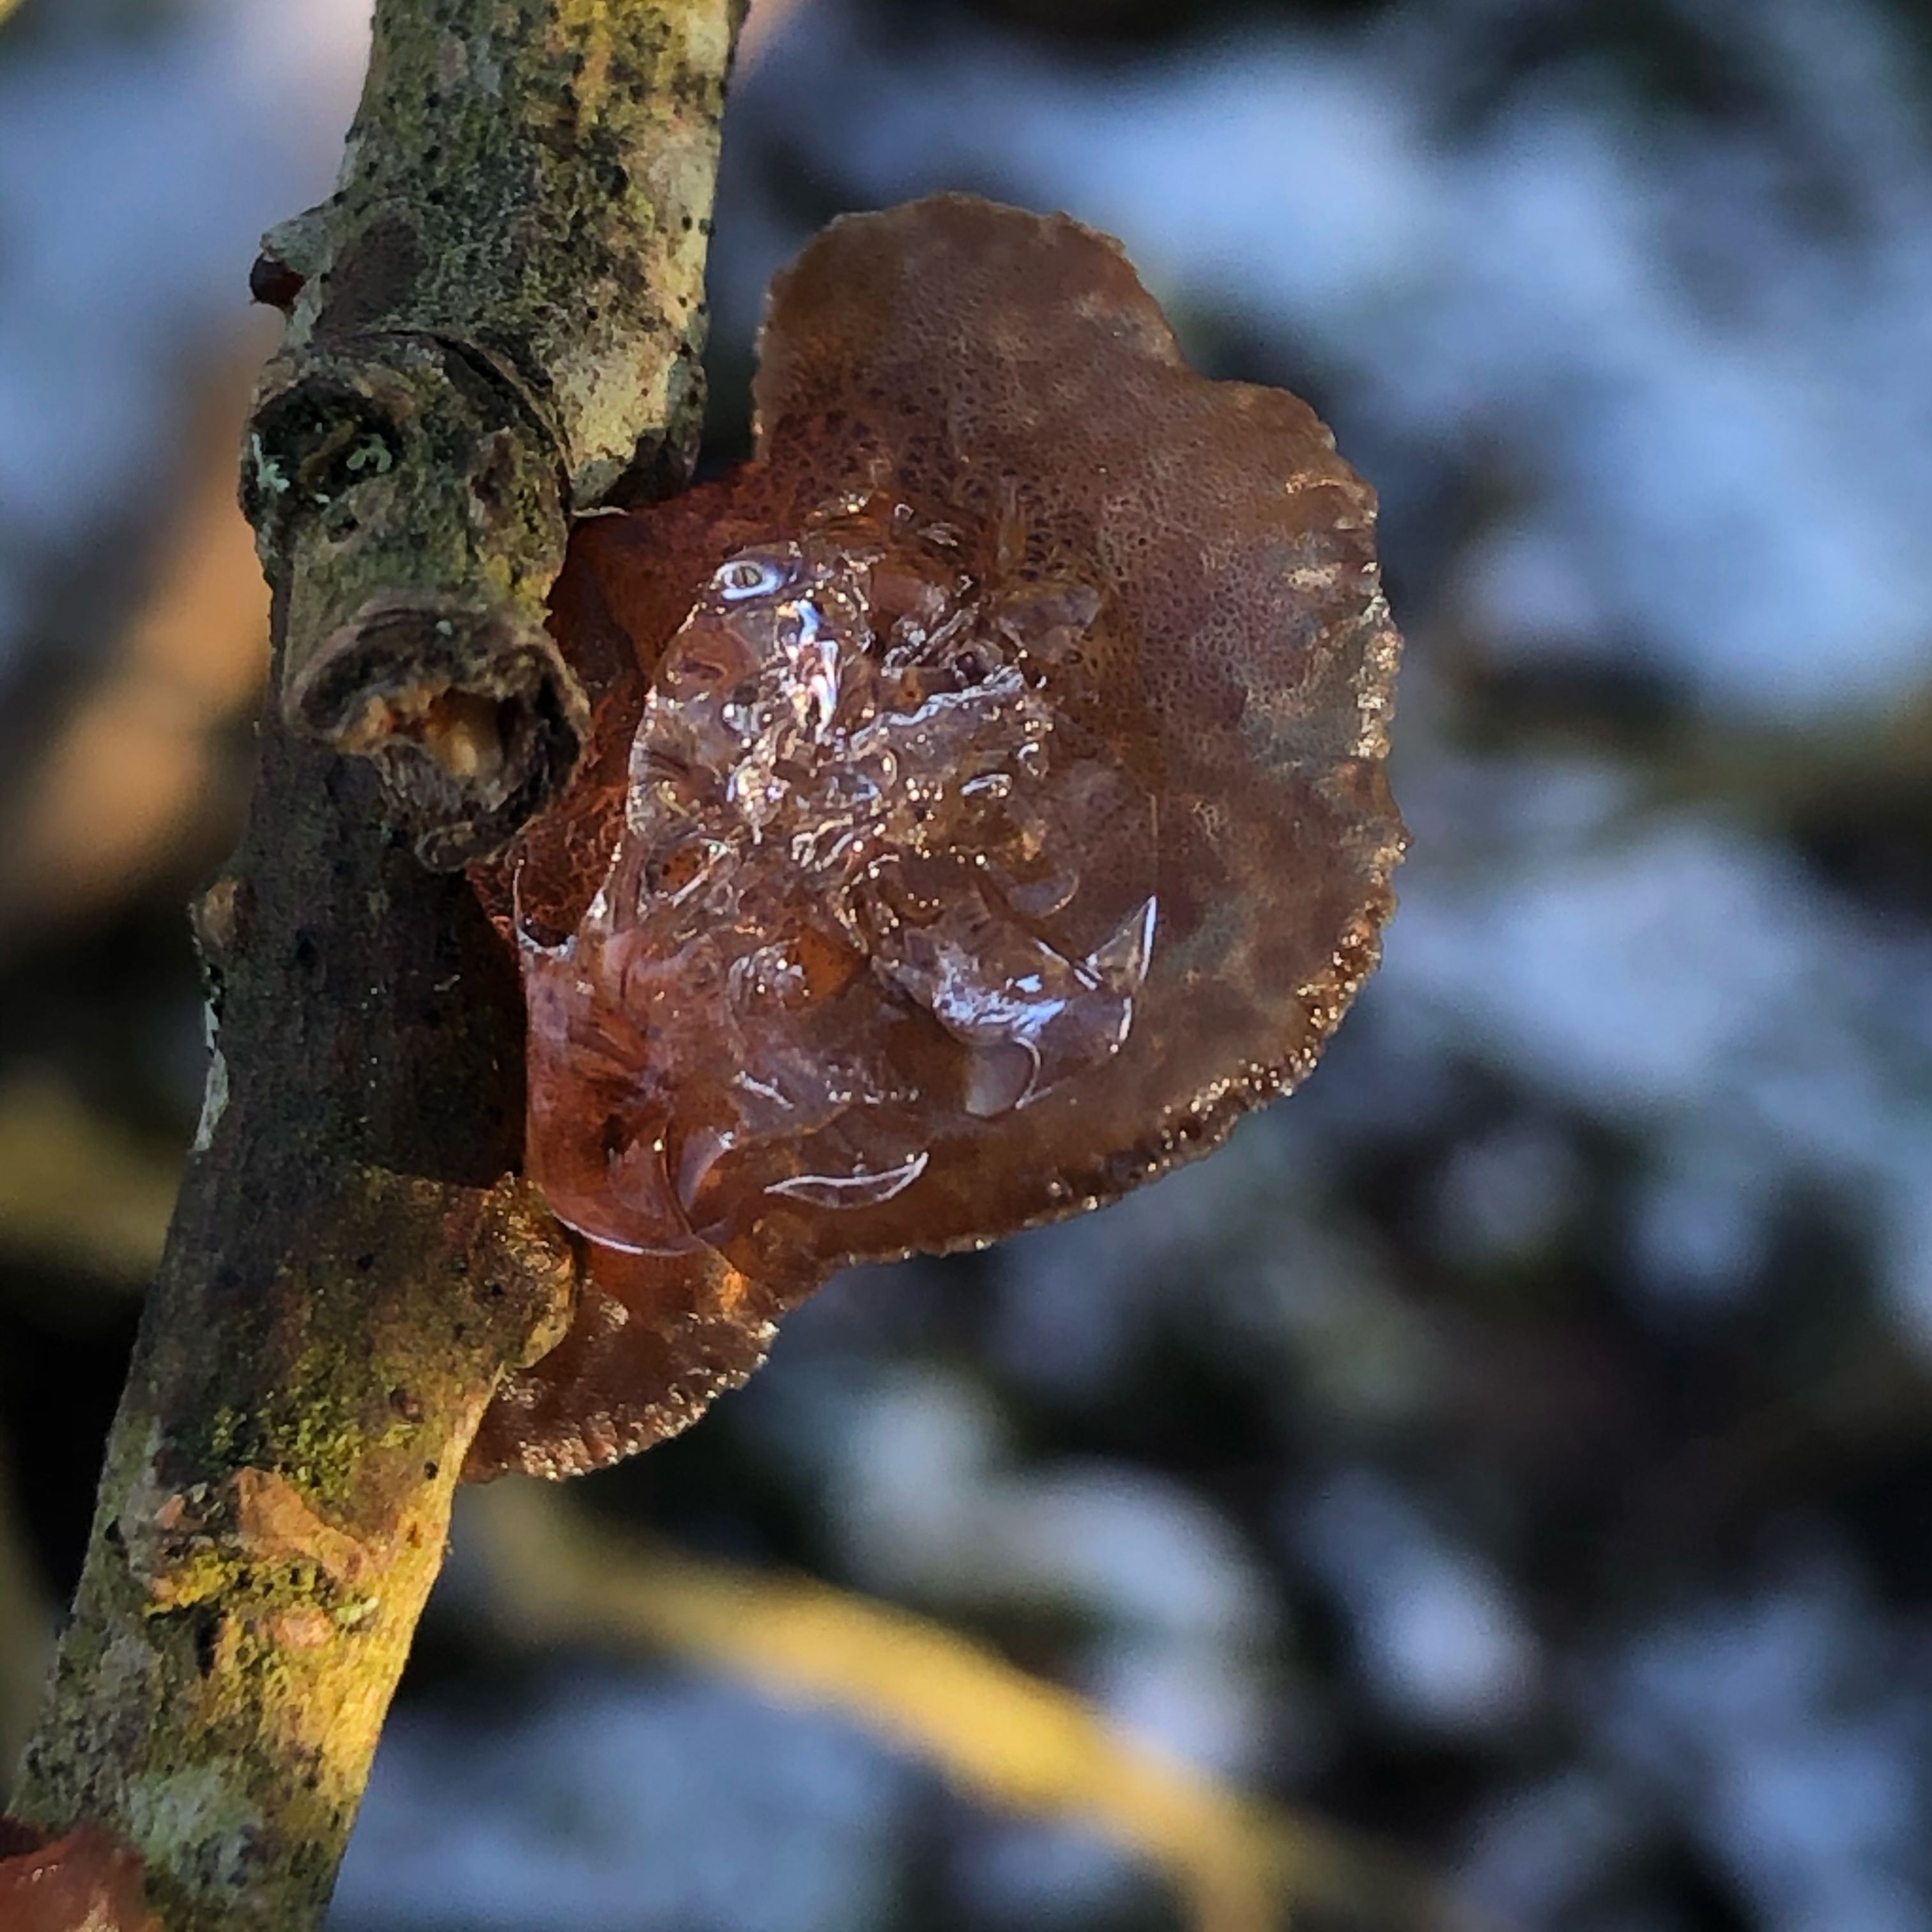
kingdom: Fungi
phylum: Basidiomycota
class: Agaricomycetes
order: Auriculariales
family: Auriculariaceae
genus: Exidia
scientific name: Exidia recisa
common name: pile-bævretop
